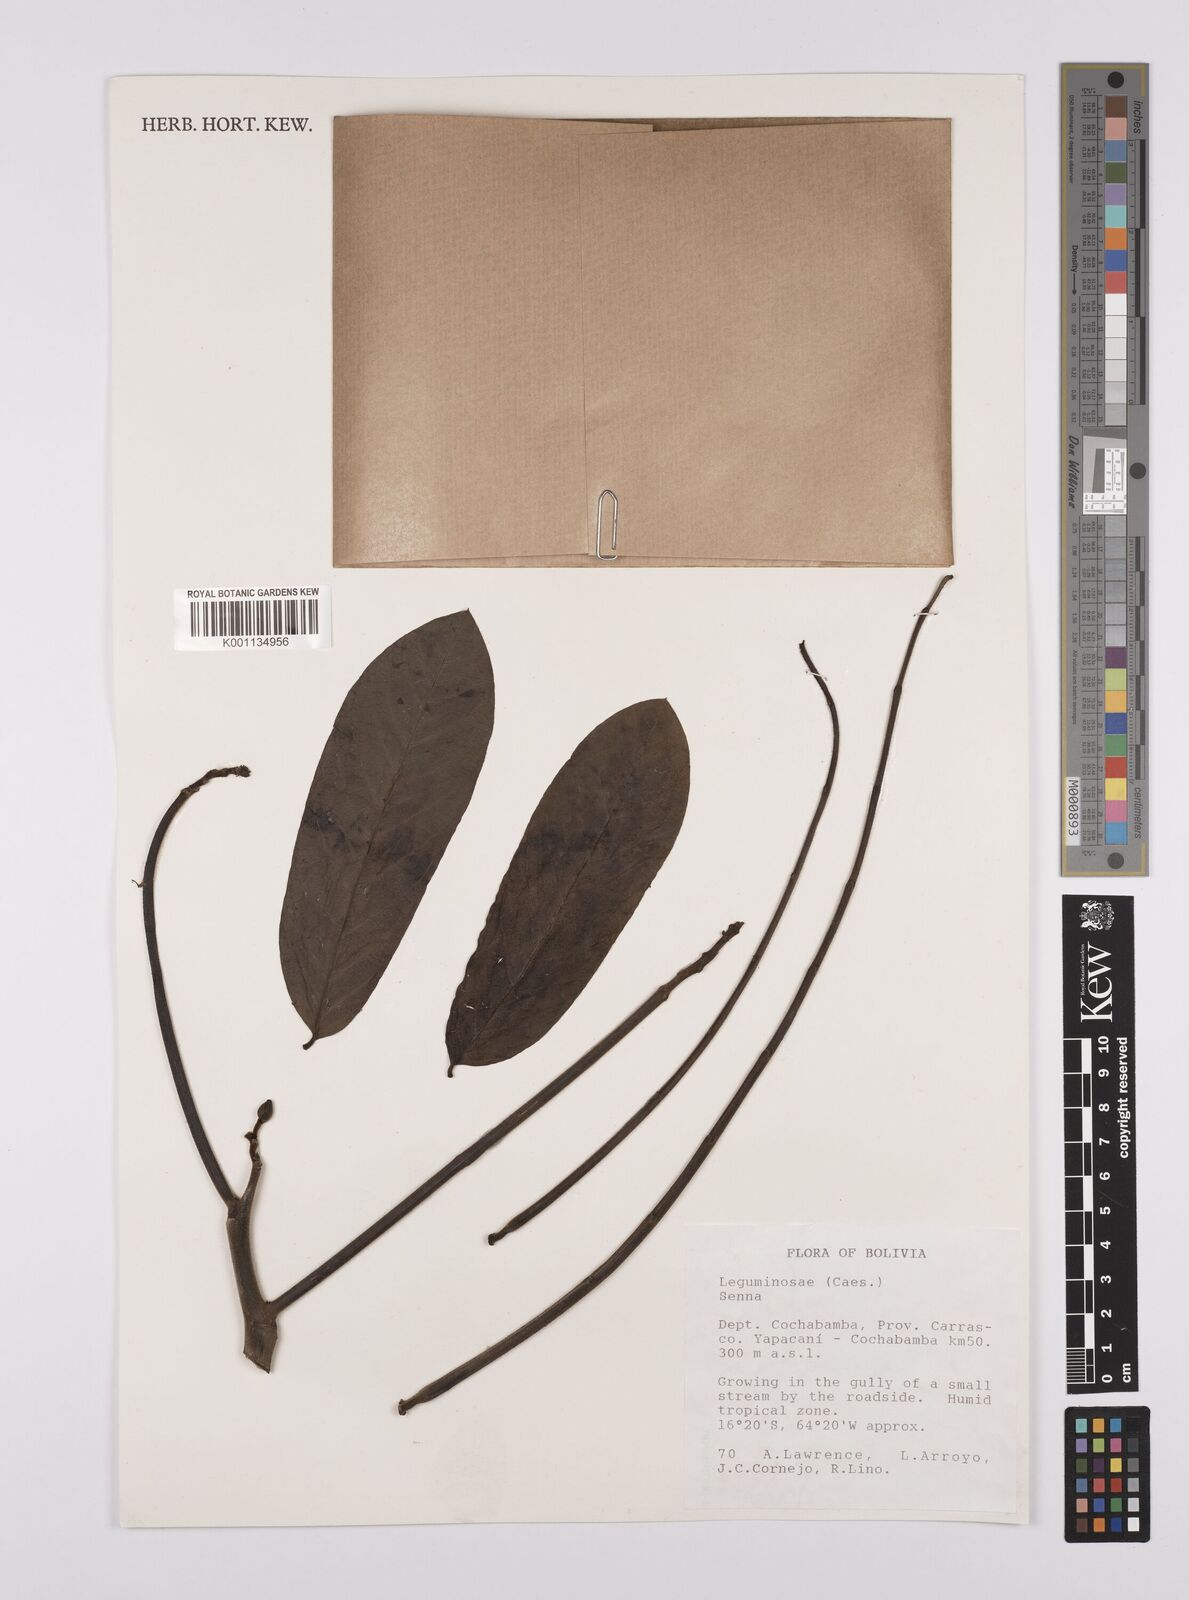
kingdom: Plantae
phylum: Tracheophyta
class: Magnoliopsida
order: Fabales
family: Fabaceae
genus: Senna
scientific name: Senna
